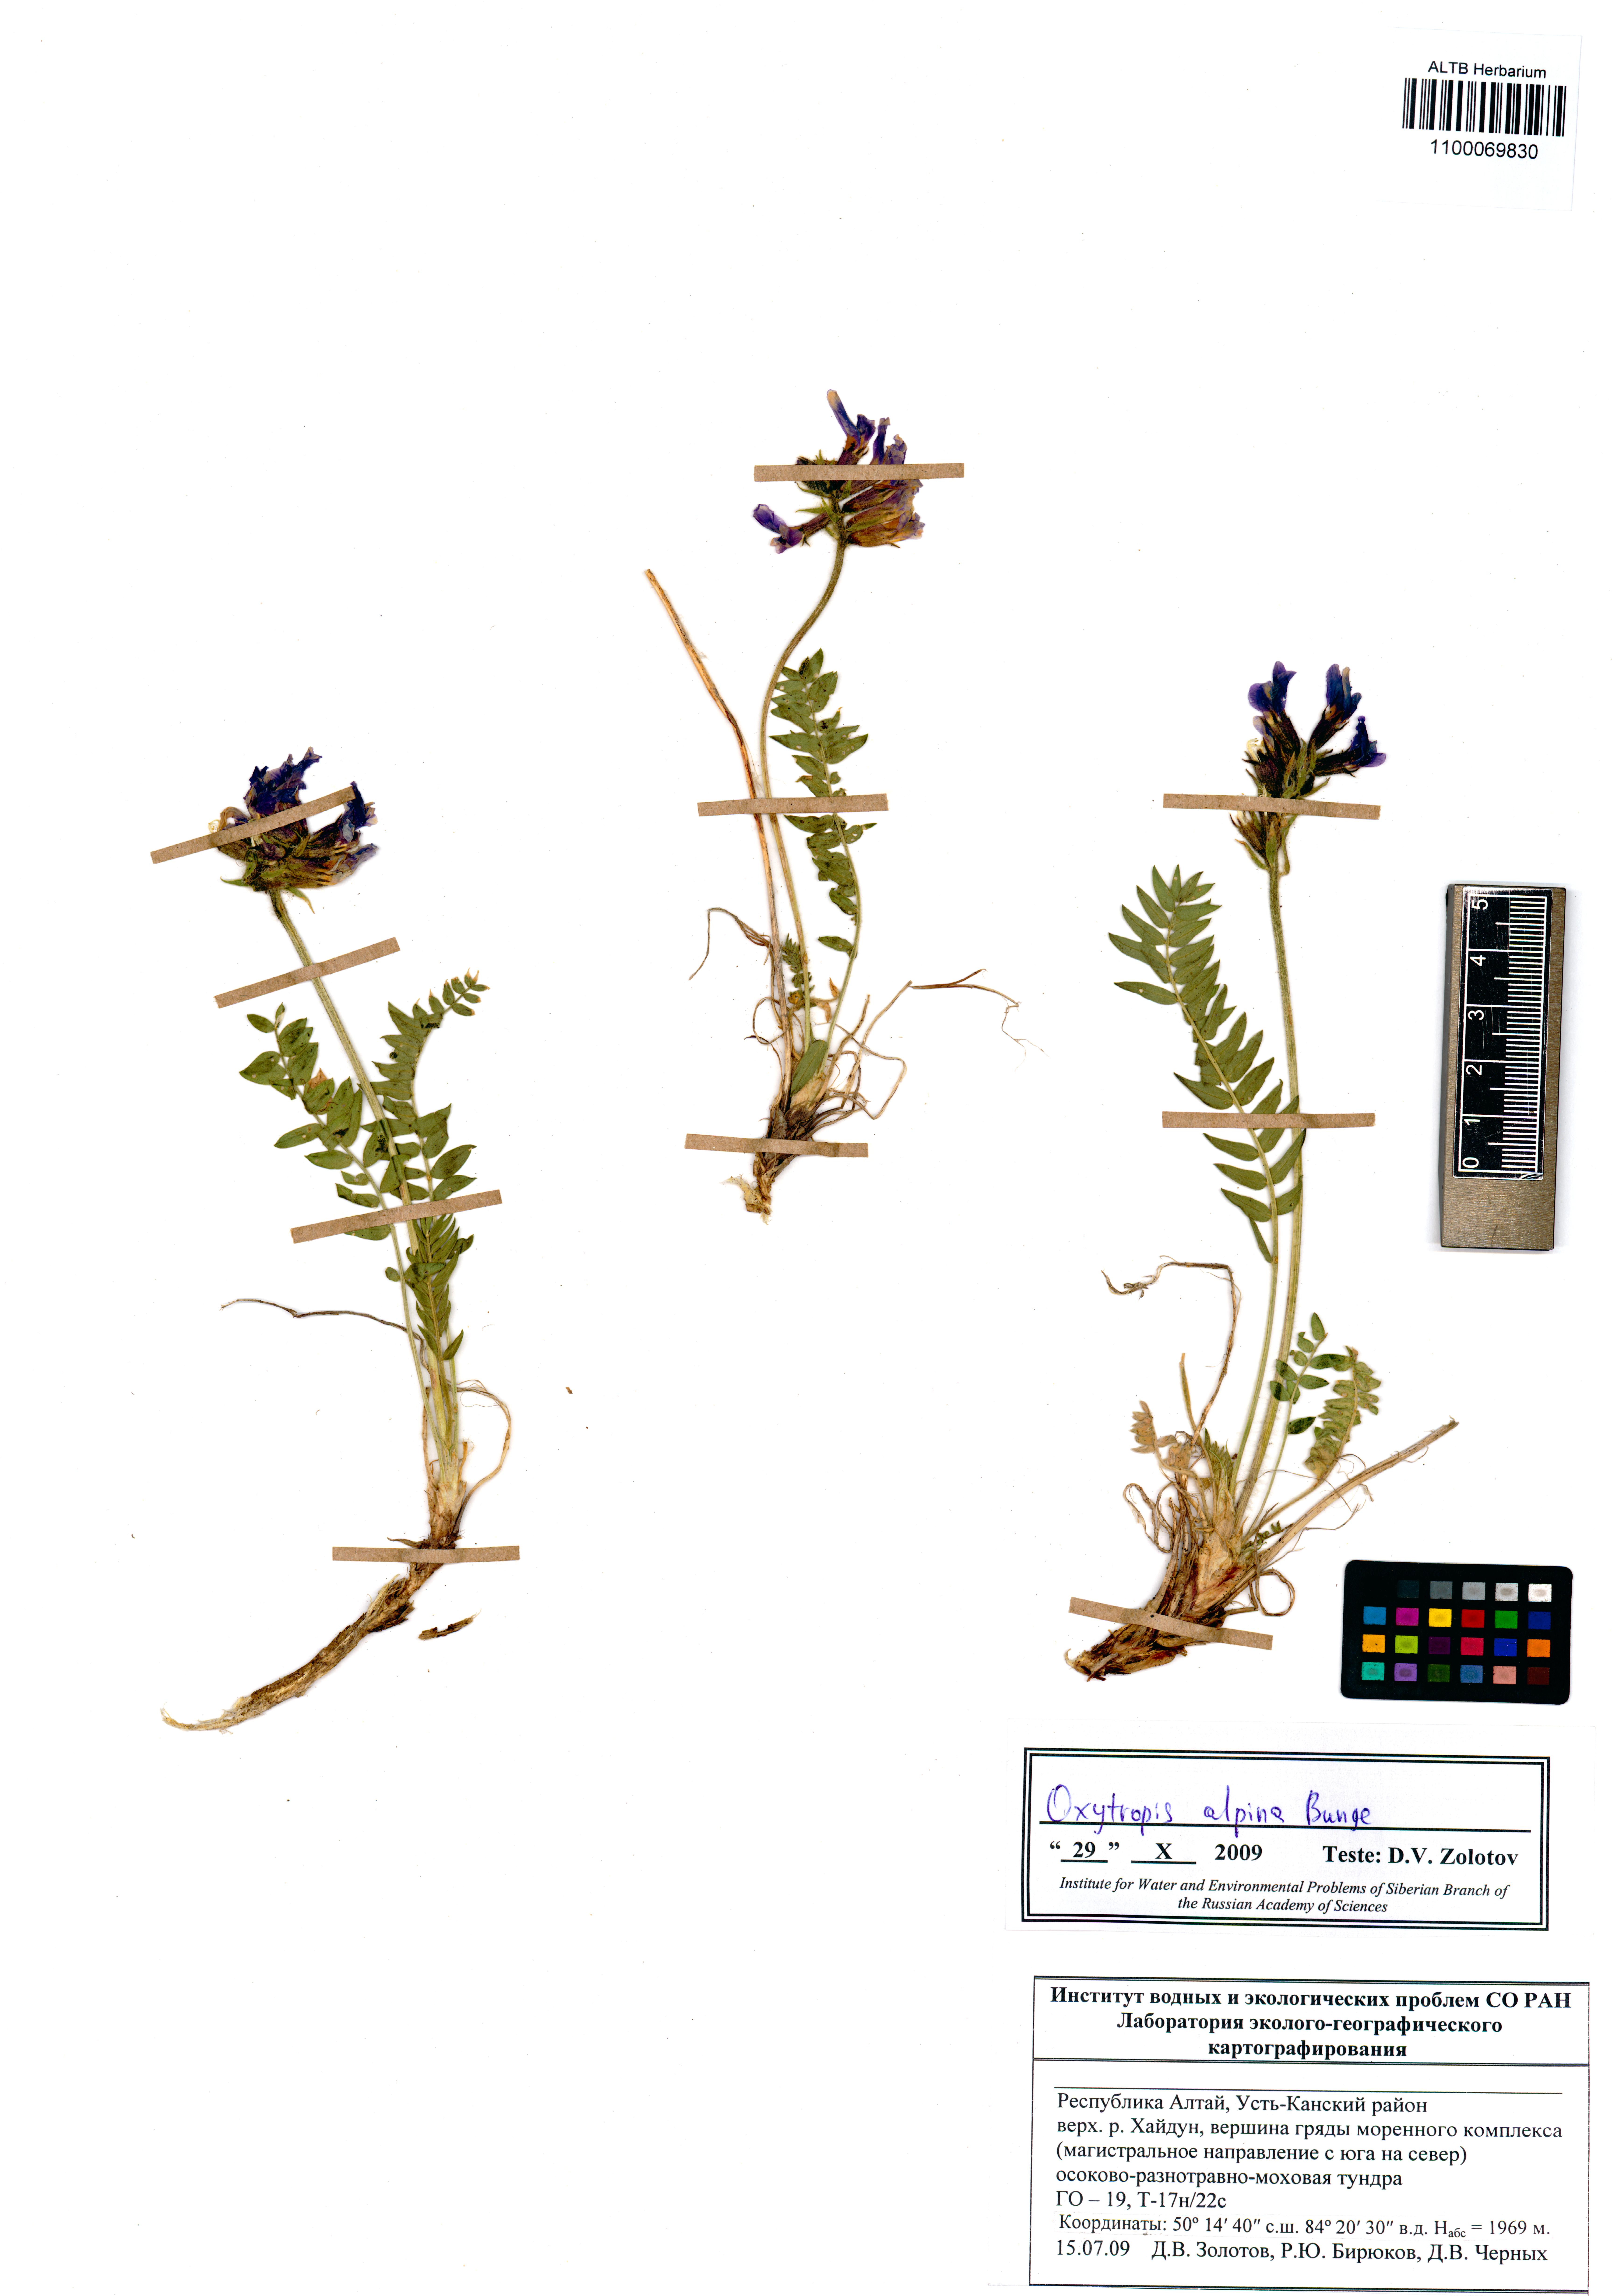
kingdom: Plantae
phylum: Tracheophyta
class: Magnoliopsida
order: Fabales
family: Fabaceae
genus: Oxytropis
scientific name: Oxytropis alpina
